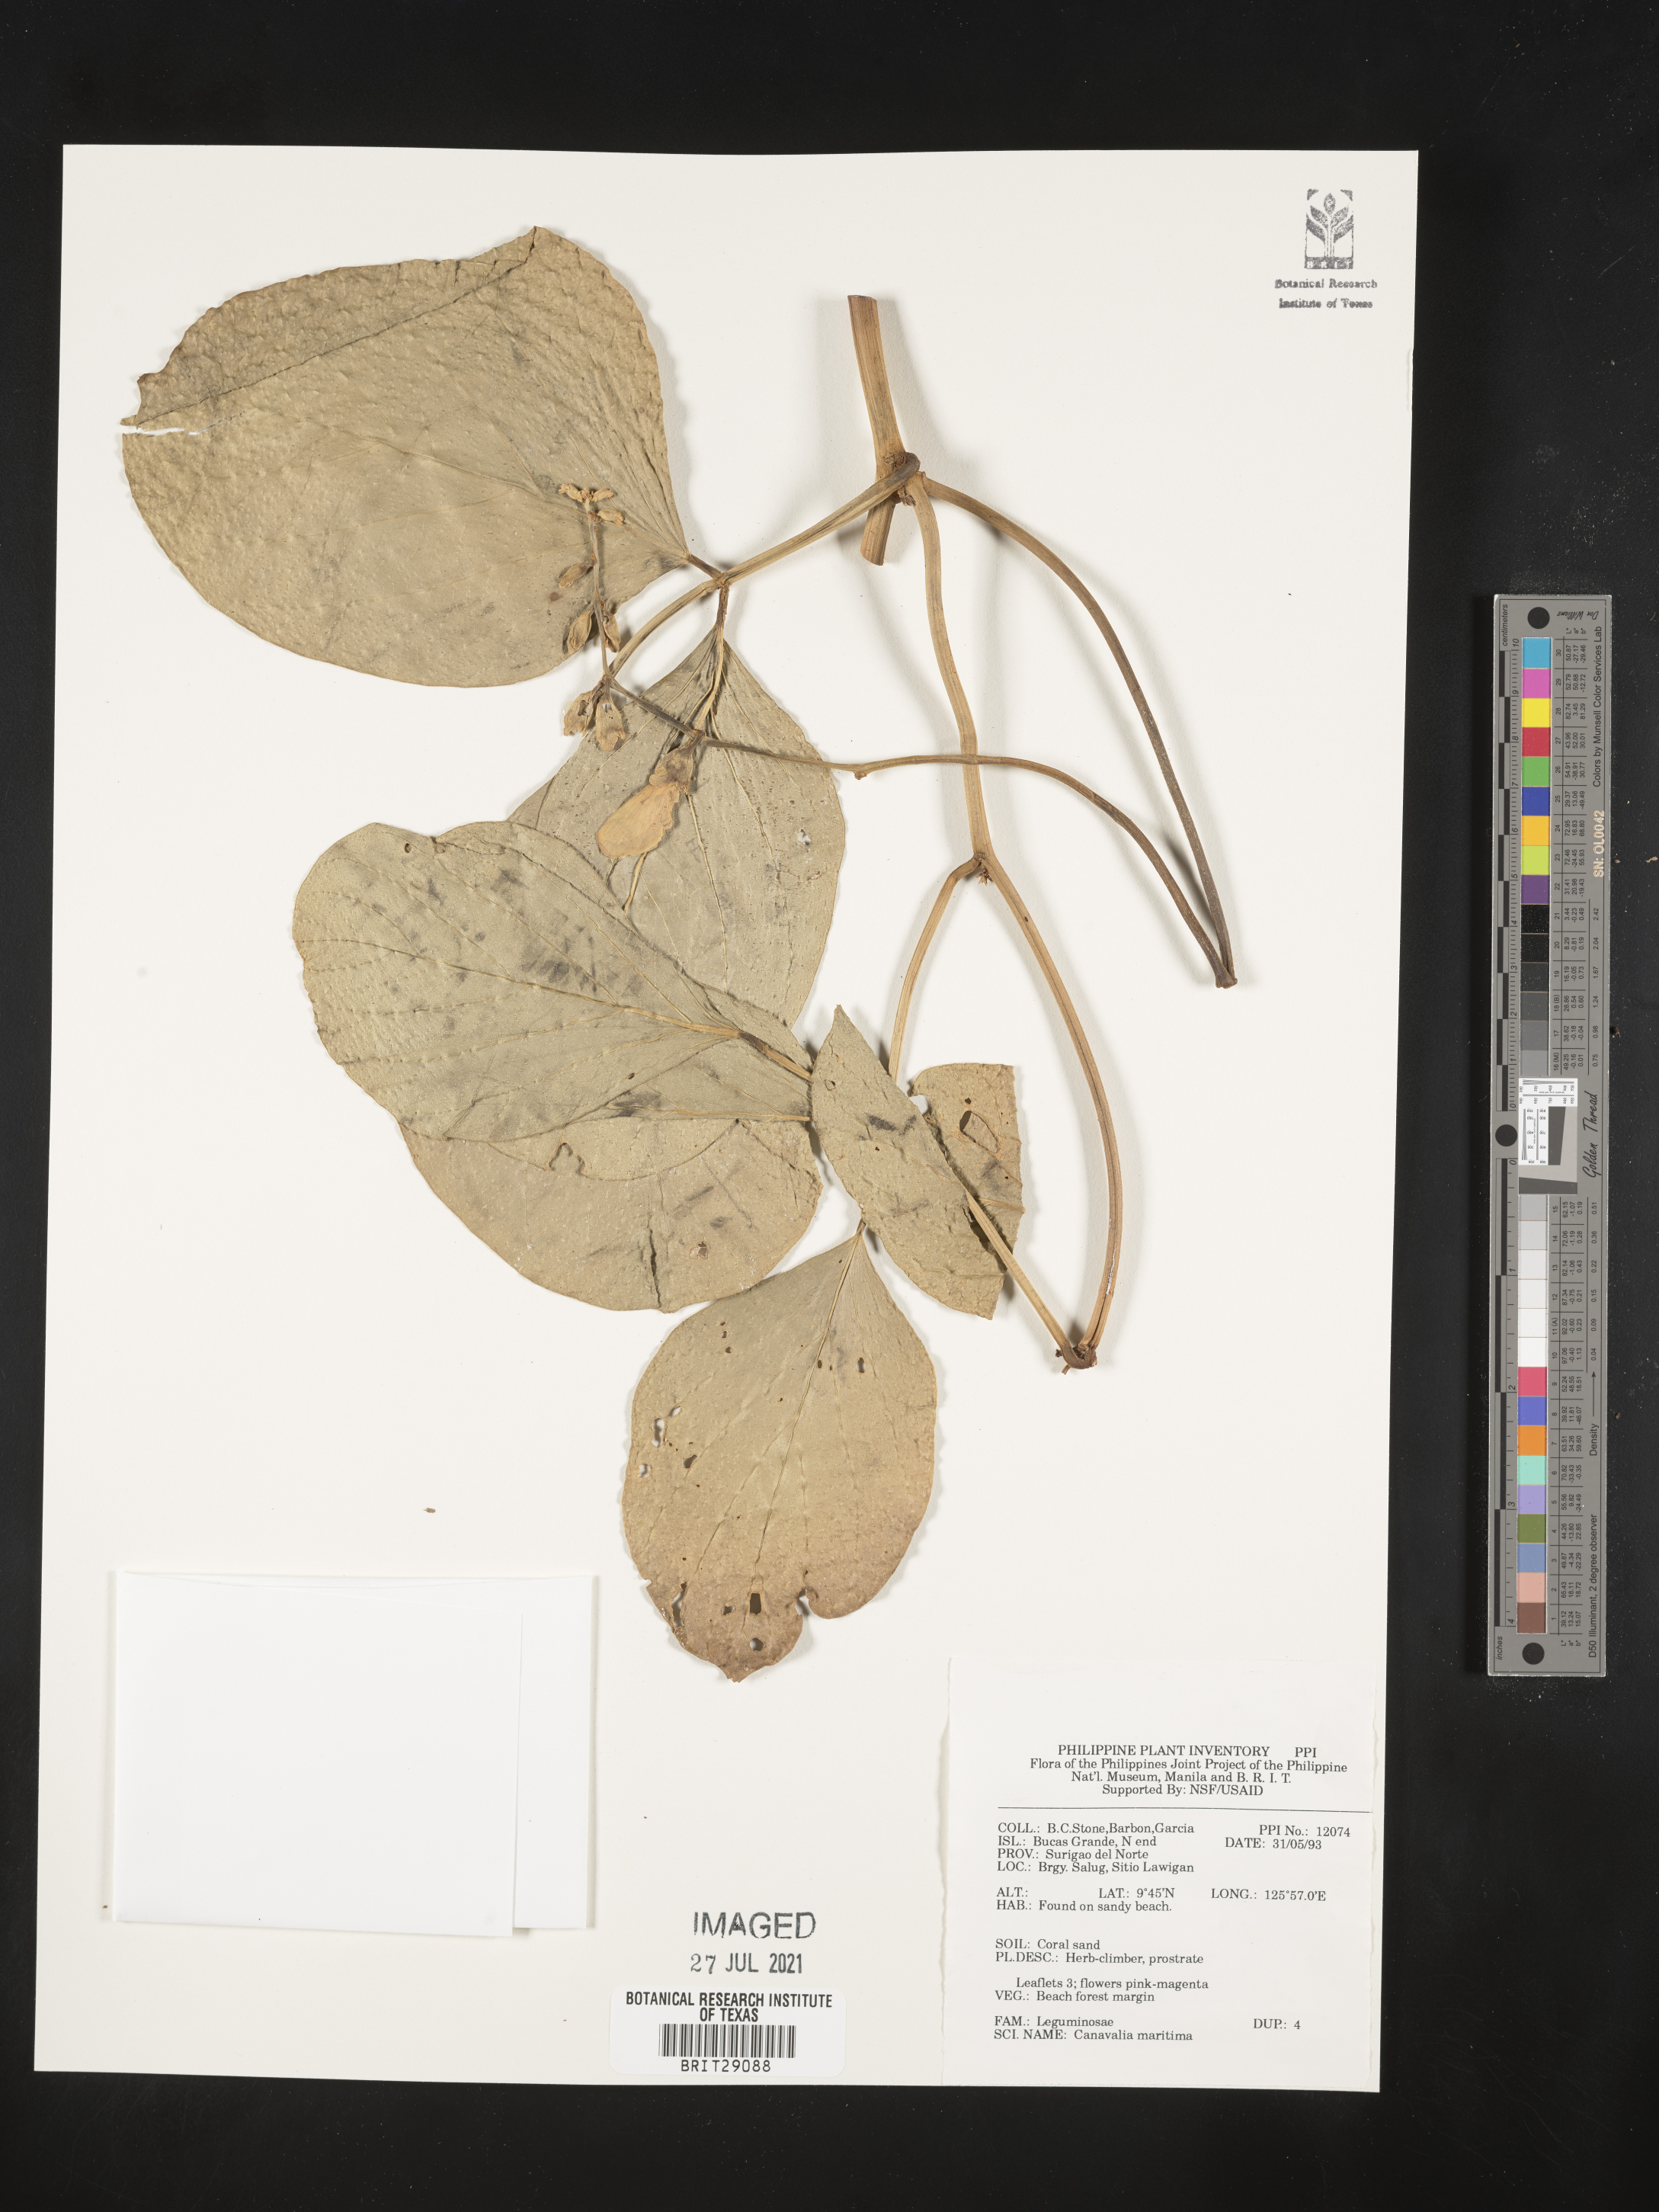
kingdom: Plantae
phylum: Tracheophyta
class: Magnoliopsida
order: Fabales
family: Fabaceae
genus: Canavalia
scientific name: Canavalia rosea
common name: Beach-bean
